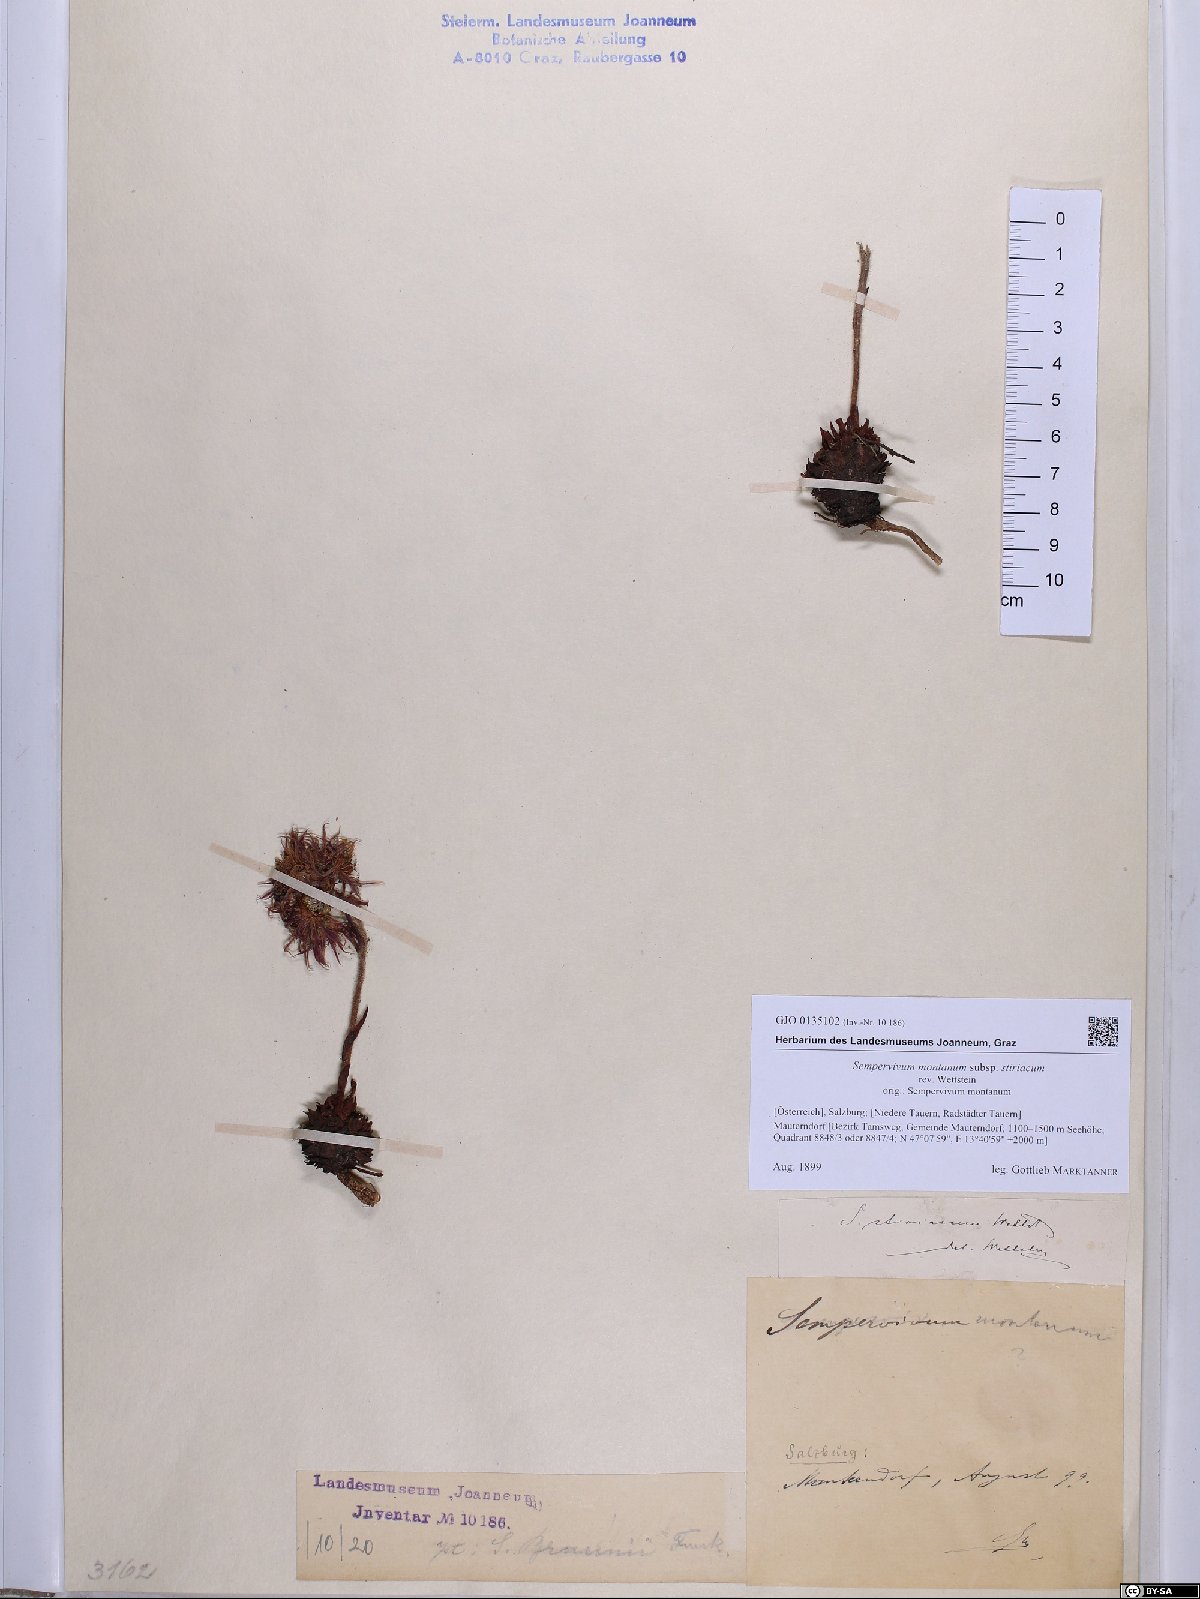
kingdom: Plantae
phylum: Tracheophyta
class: Magnoliopsida
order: Saxifragales
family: Crassulaceae
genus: Sempervivum
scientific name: Sempervivum montanum
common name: Mountain house-leek
